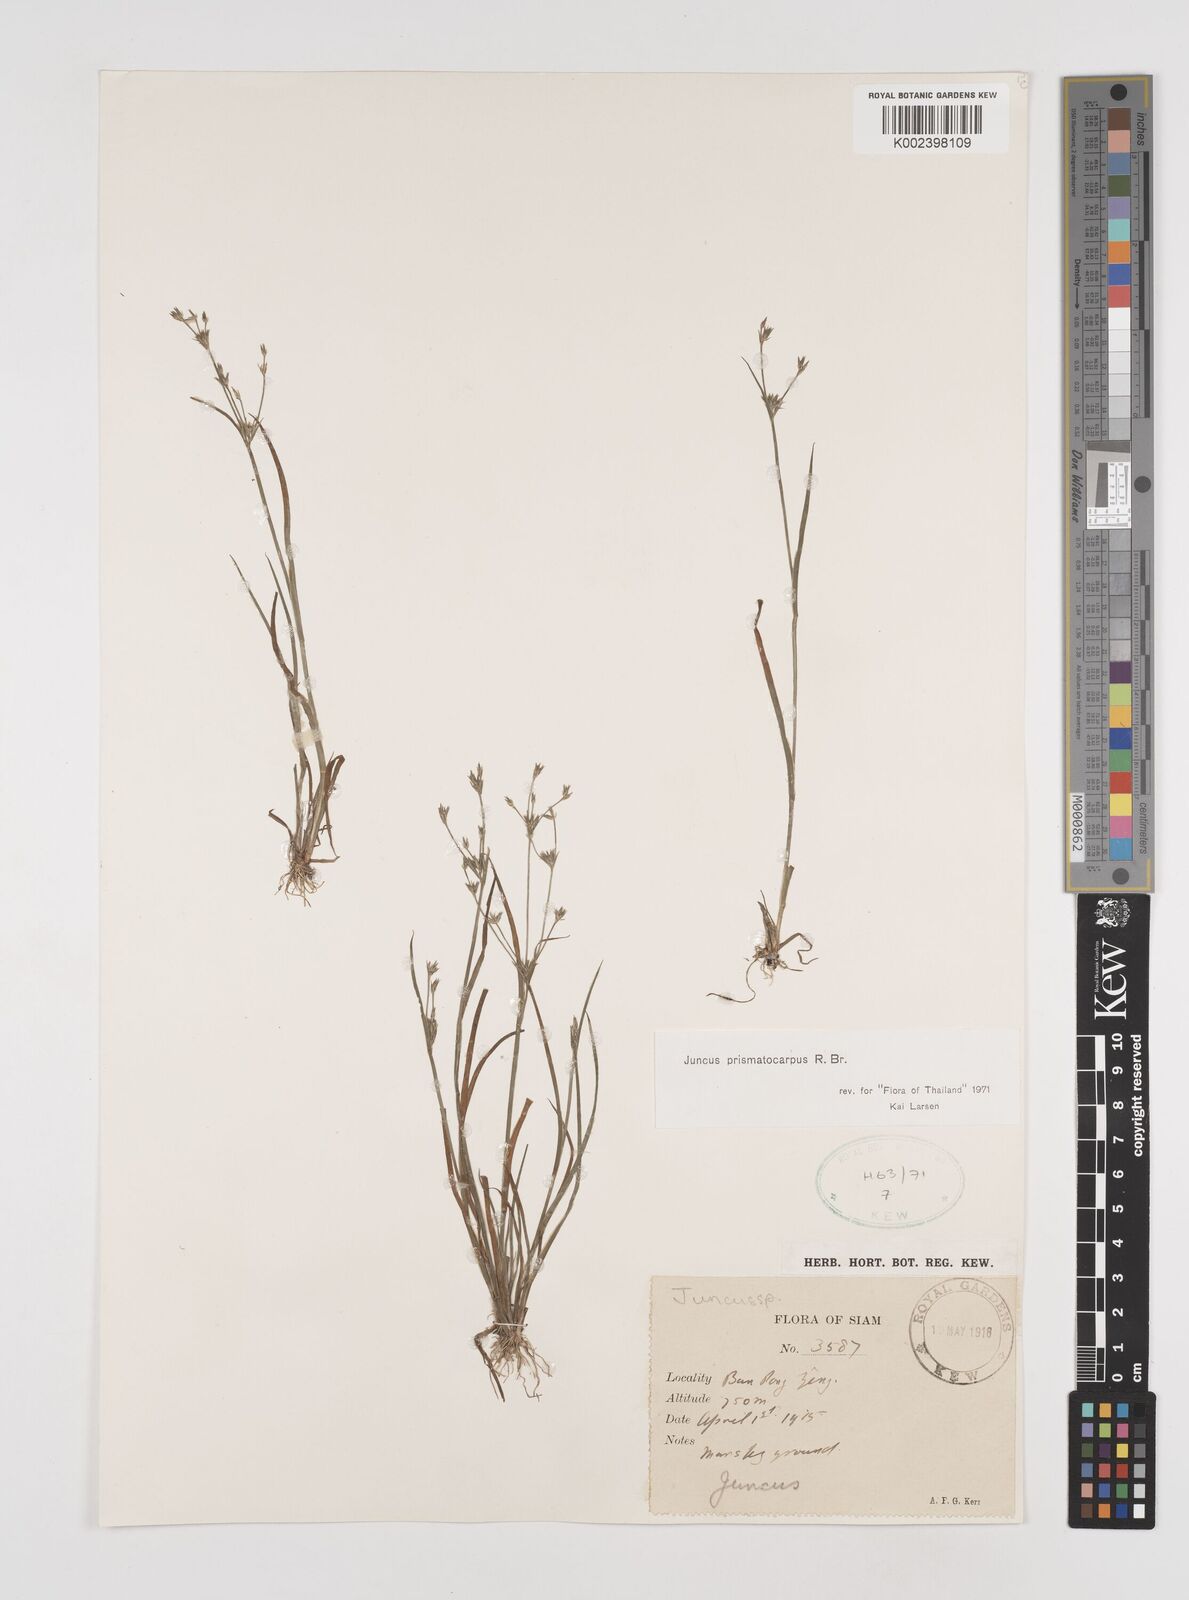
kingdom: Plantae
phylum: Tracheophyta
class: Liliopsida
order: Poales
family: Juncaceae
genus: Juncus
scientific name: Juncus prismatocarpus
